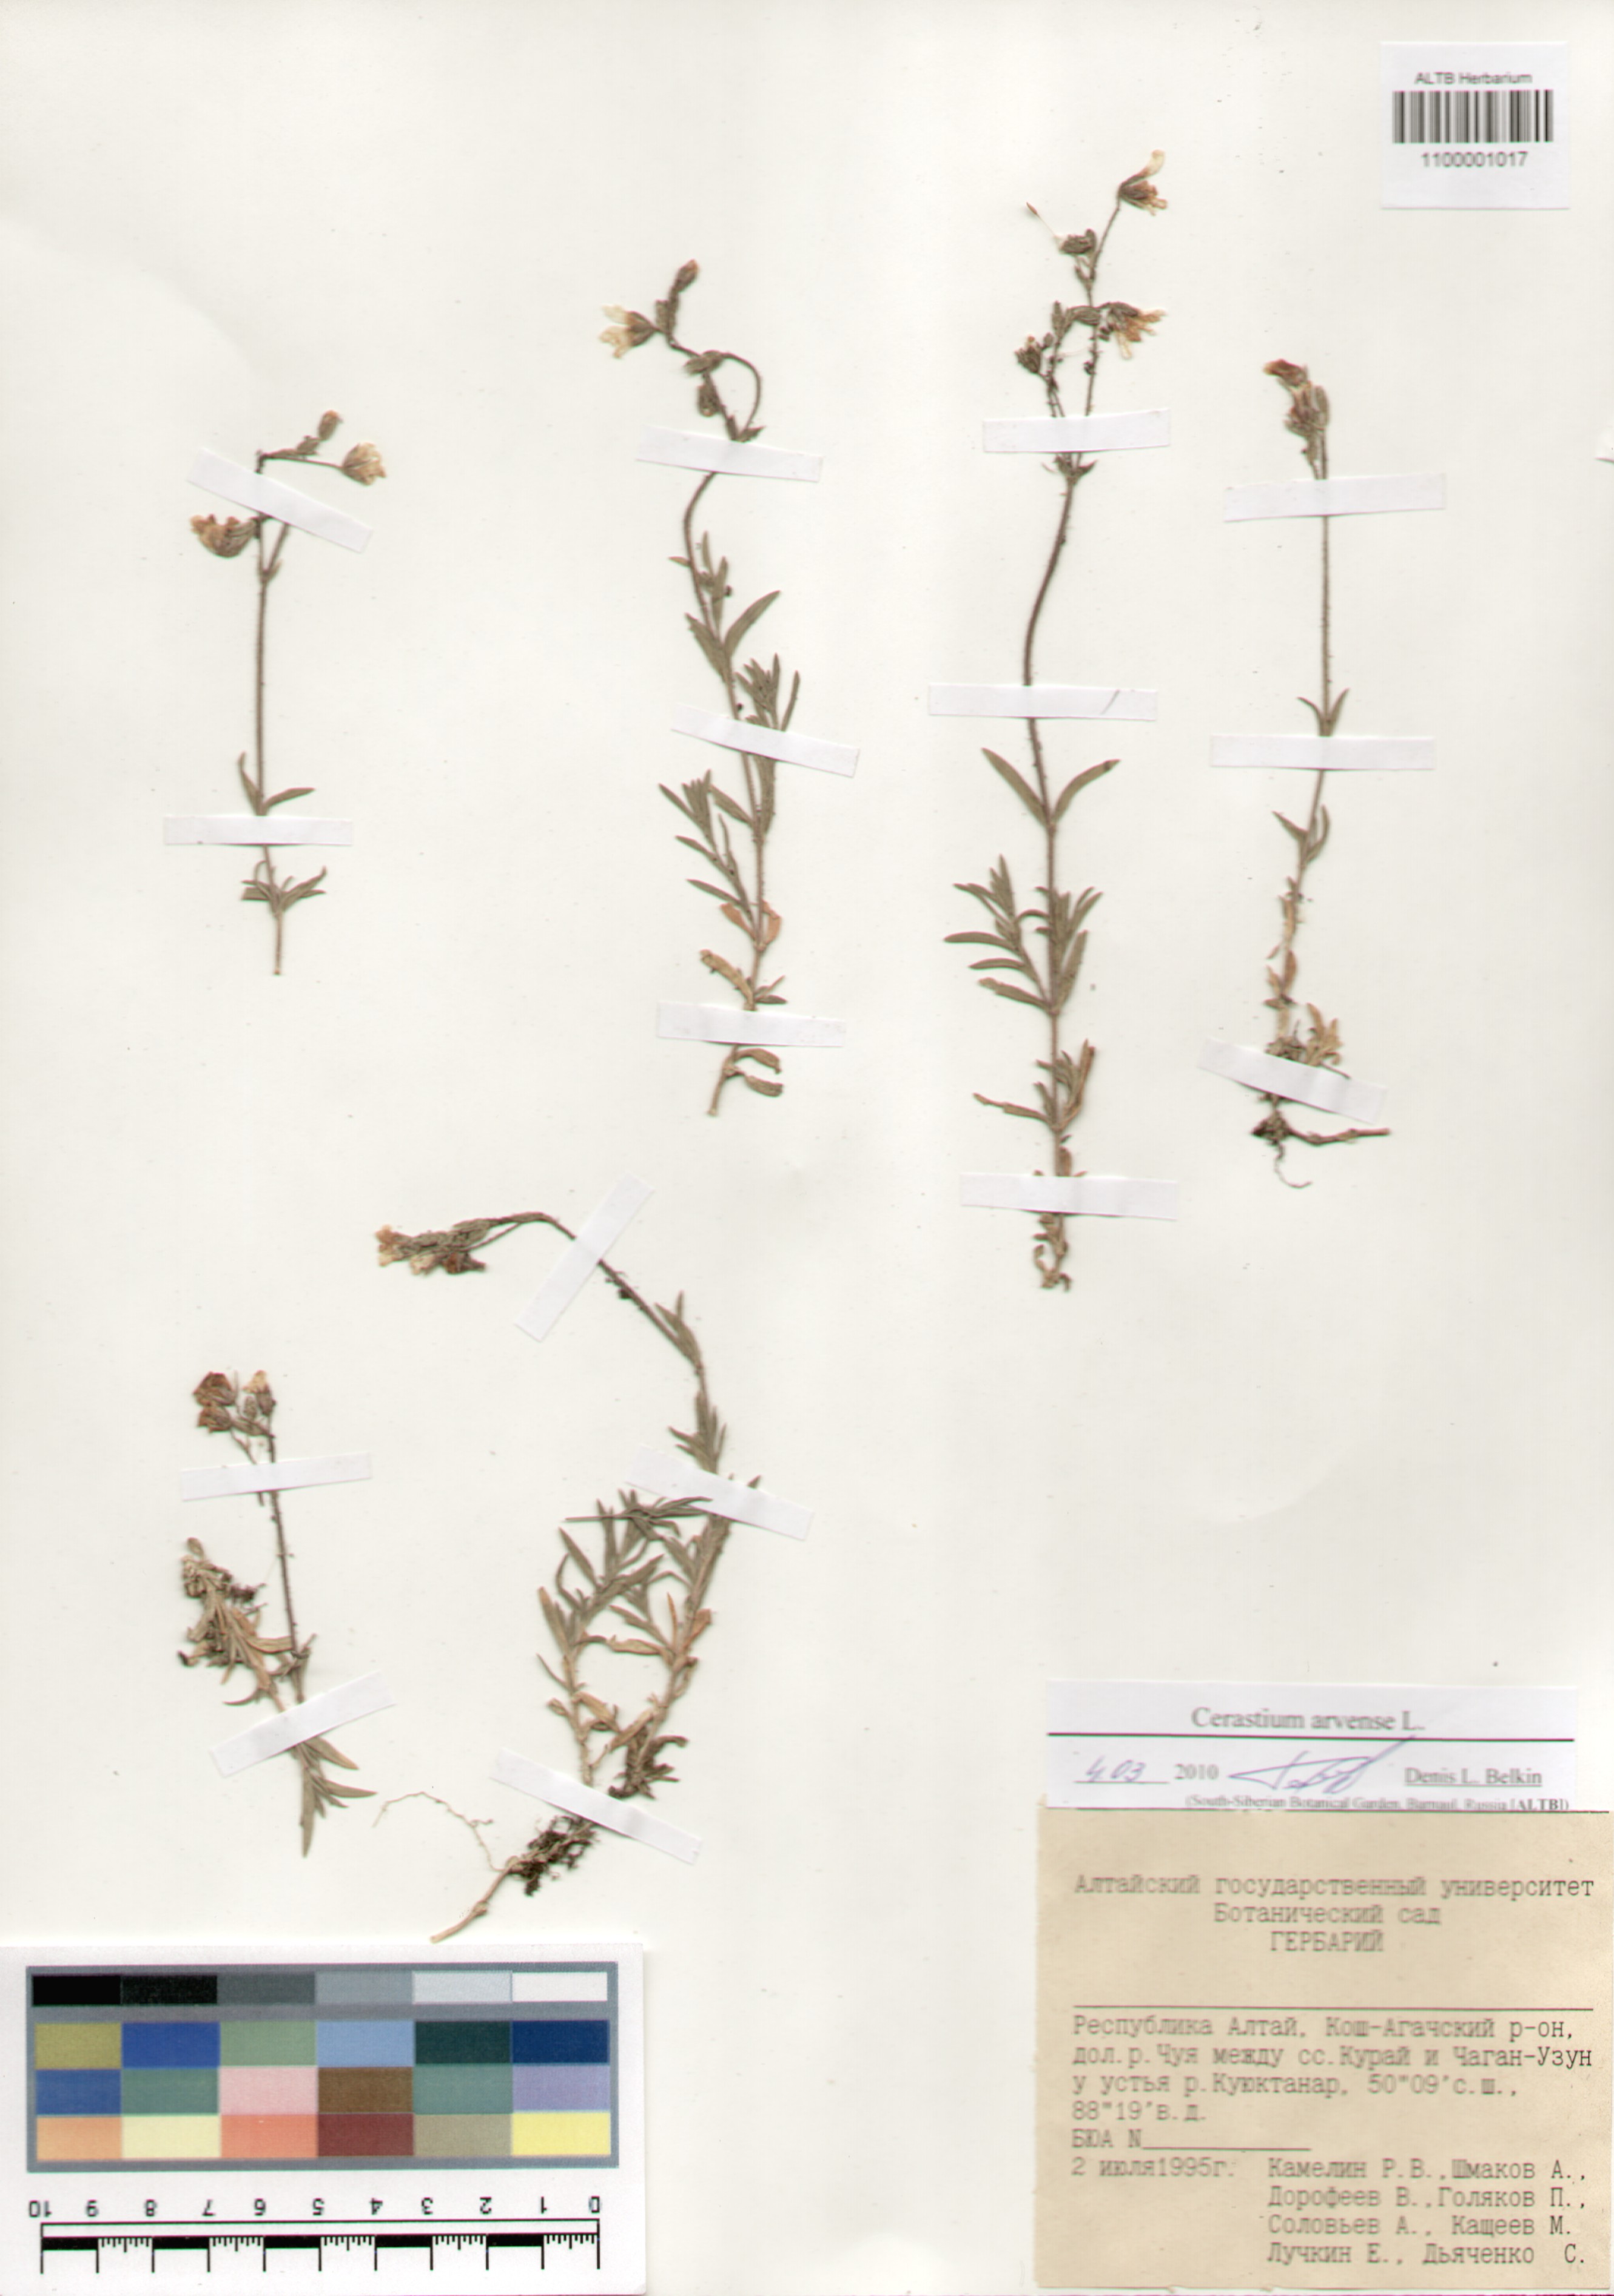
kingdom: Plantae
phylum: Tracheophyta
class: Magnoliopsida
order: Caryophyllales
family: Caryophyllaceae
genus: Cerastium
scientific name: Cerastium arvense
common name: Field mouse-ear
